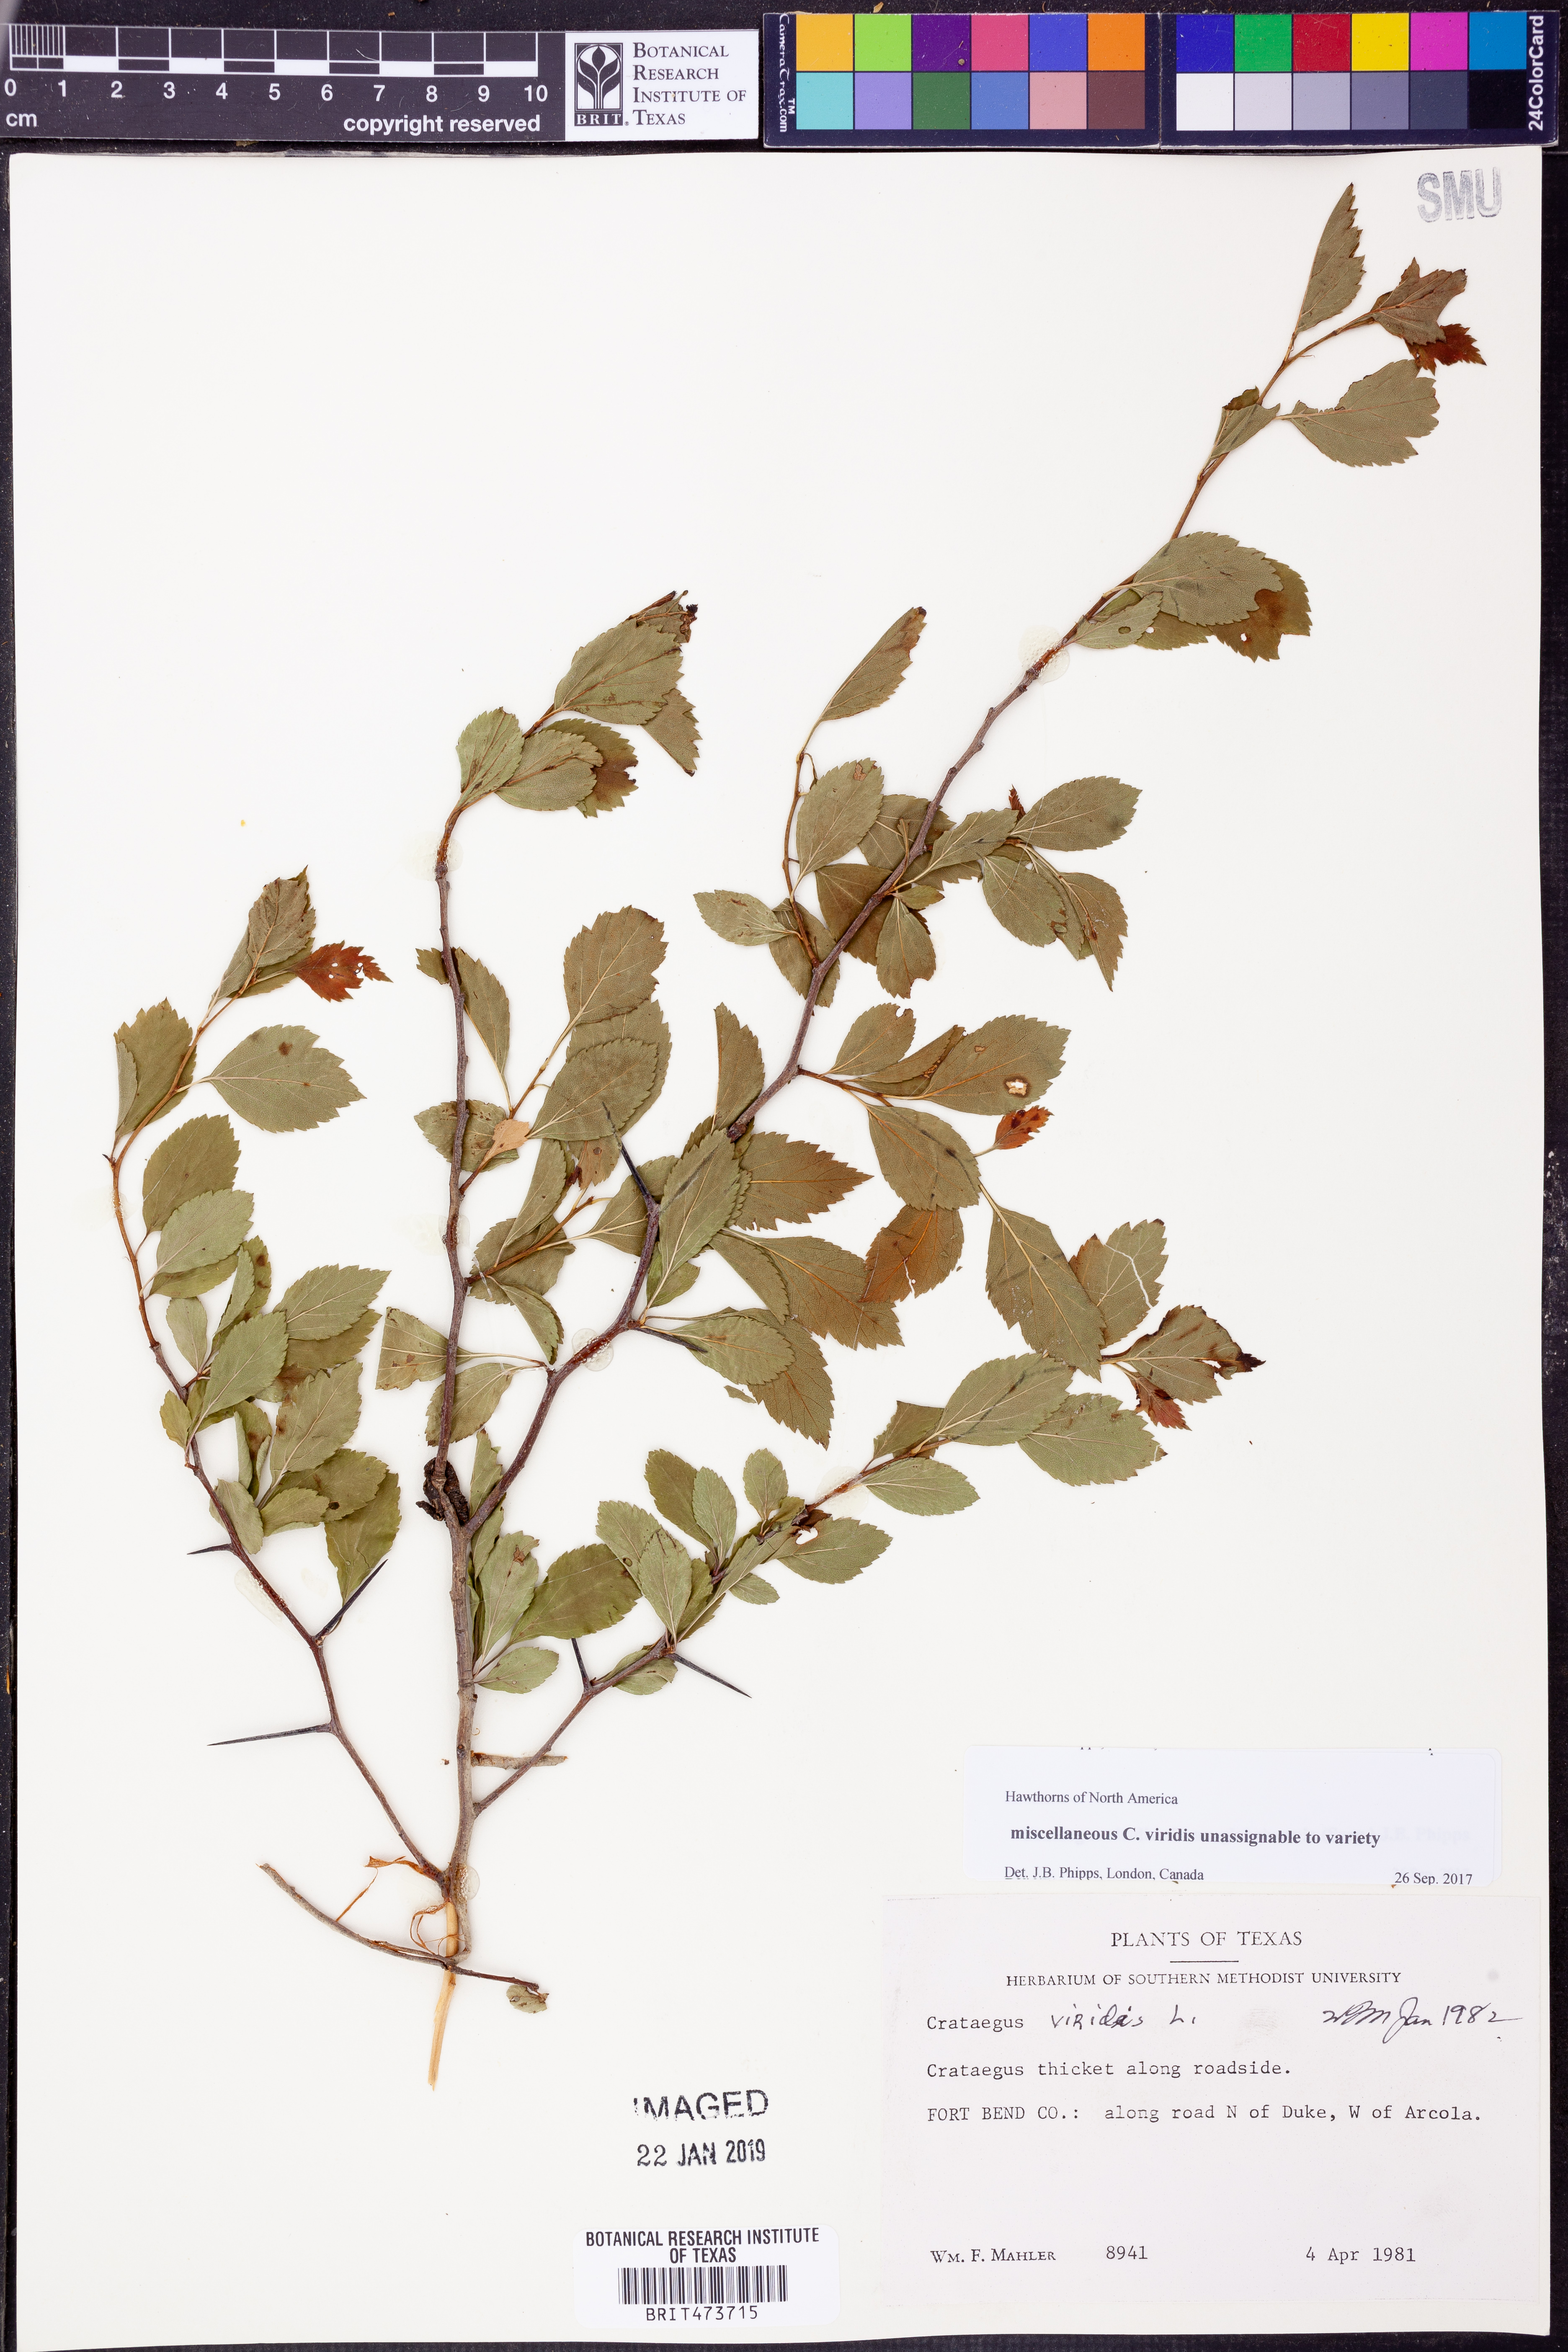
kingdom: Plantae
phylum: Tracheophyta
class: Magnoliopsida
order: Rosales
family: Rosaceae
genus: Crataegus
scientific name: Crataegus viridis
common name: Southernthorn
